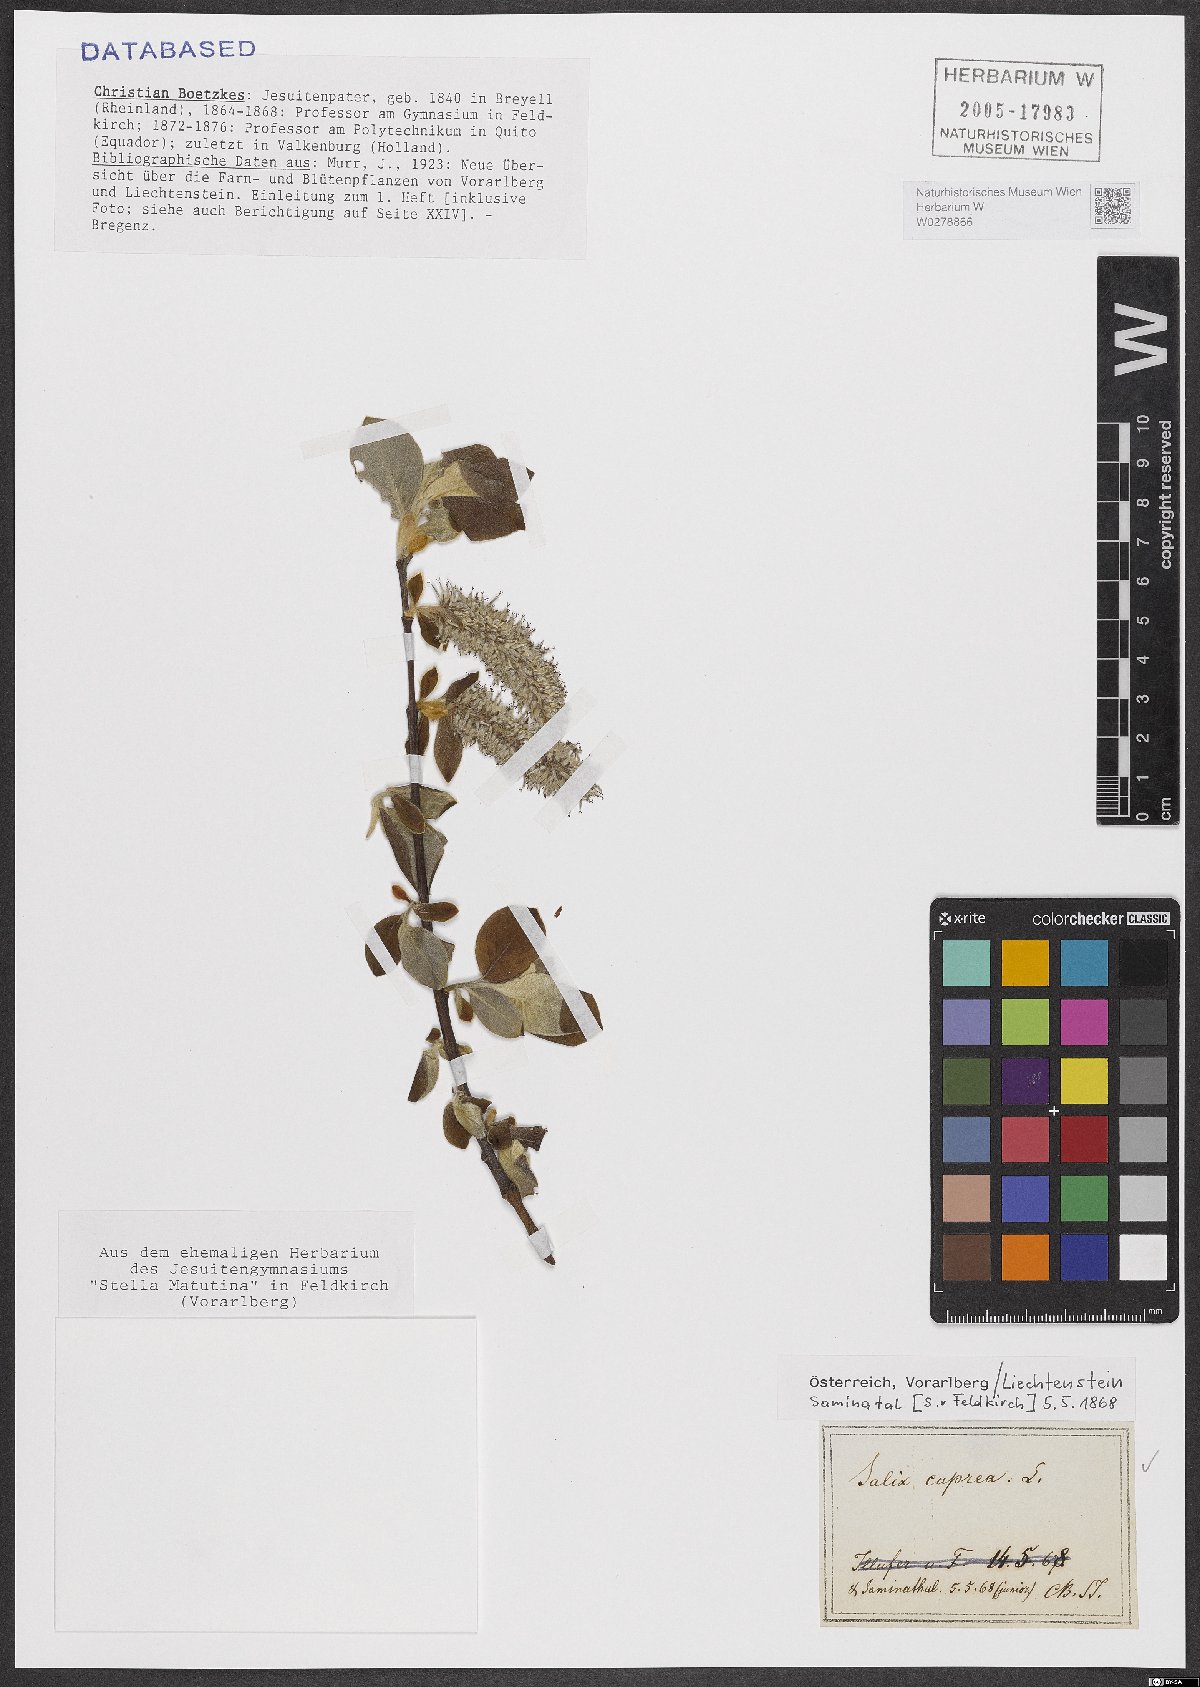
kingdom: Plantae
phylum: Tracheophyta
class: Magnoliopsida
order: Malpighiales
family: Salicaceae
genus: Salix
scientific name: Salix caprea
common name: Goat willow
